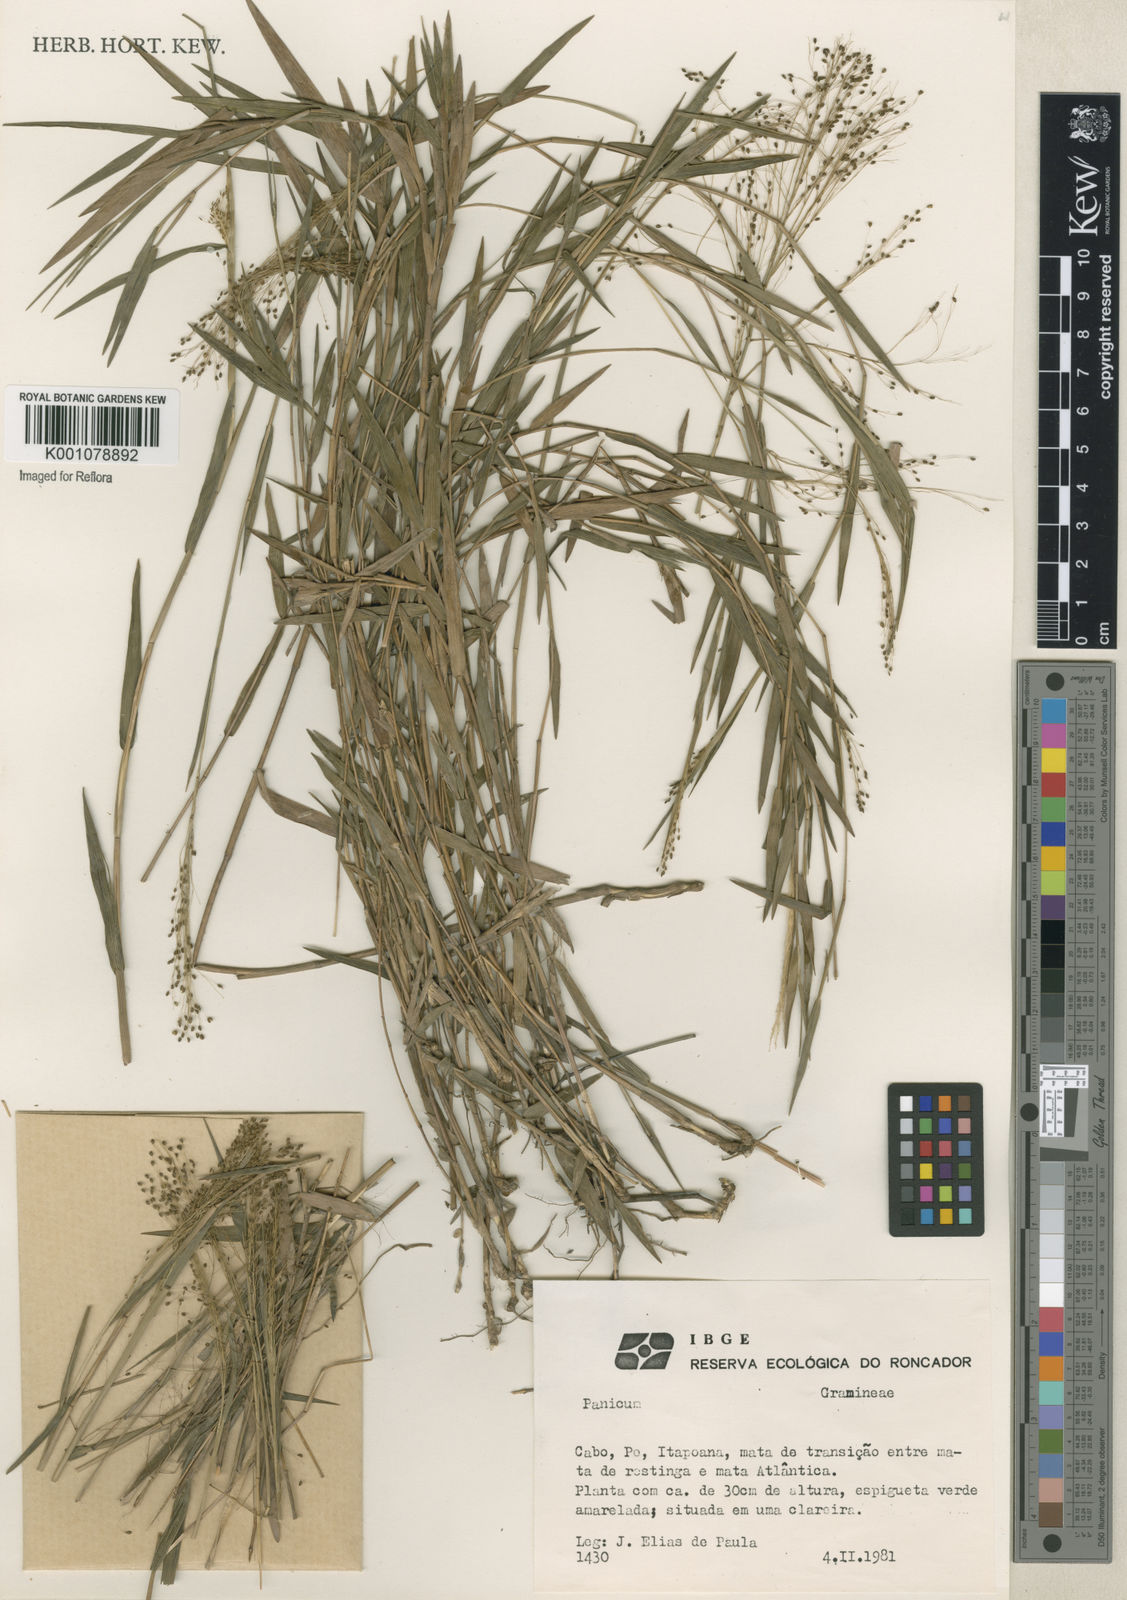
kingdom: Plantae
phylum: Tracheophyta
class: Liliopsida
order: Poales
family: Poaceae
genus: Trichanthecium
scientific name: Trichanthecium cyanescens
